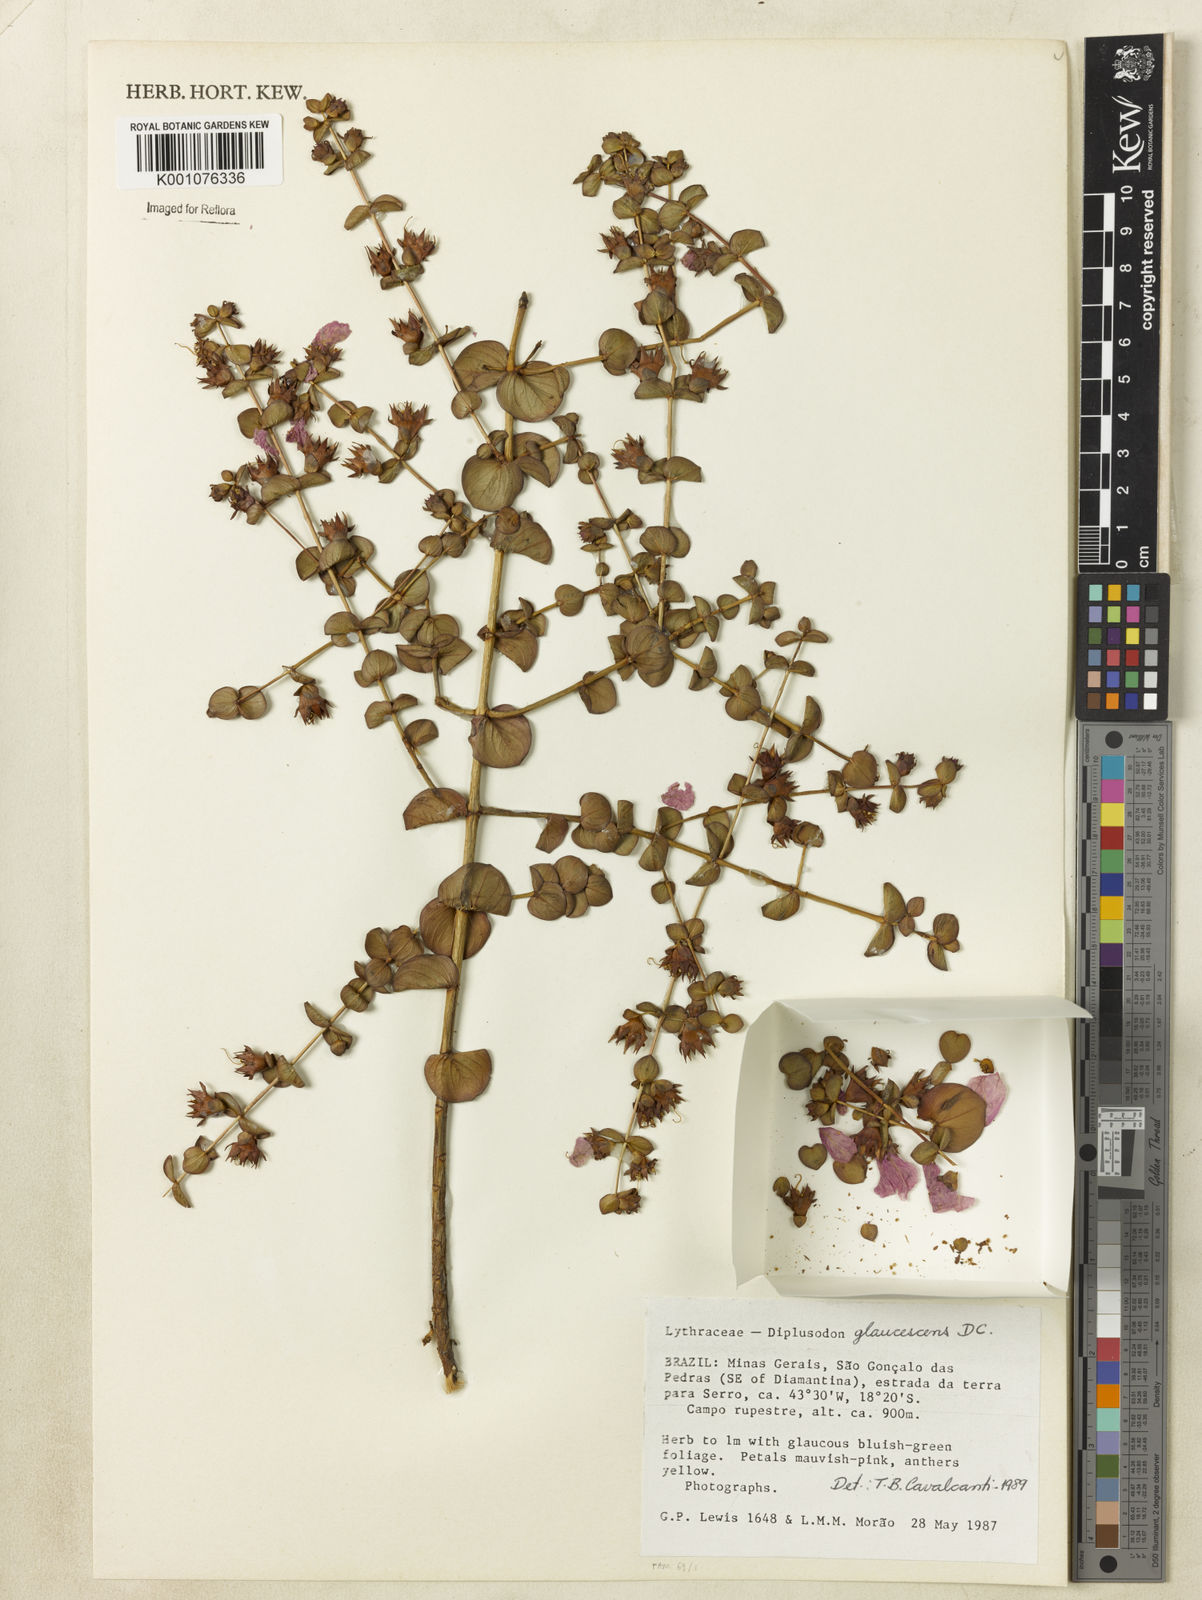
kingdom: Plantae
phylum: Tracheophyta
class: Magnoliopsida
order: Myrtales
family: Lythraceae
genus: Diplusodon
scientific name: Diplusodon glaucescens
